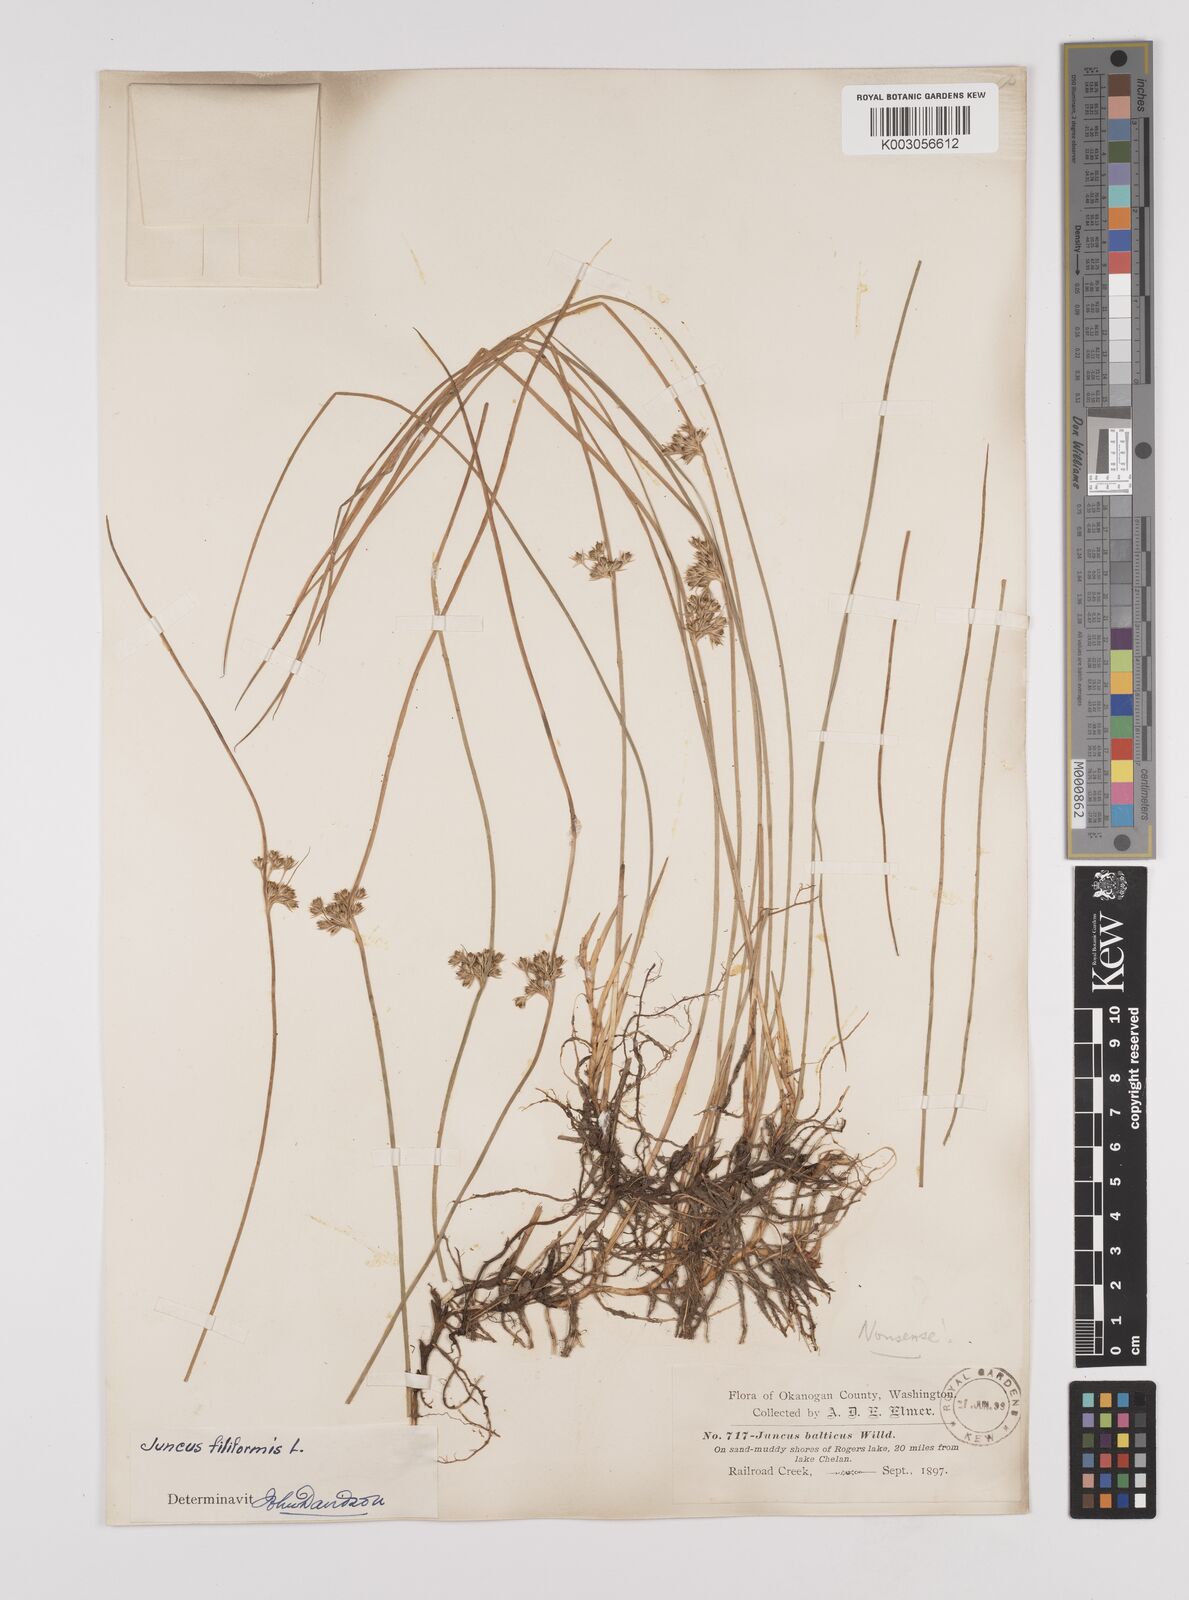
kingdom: Plantae
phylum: Tracheophyta
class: Liliopsida
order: Poales
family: Juncaceae
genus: Juncus
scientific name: Juncus filiformis
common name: Thread rush
